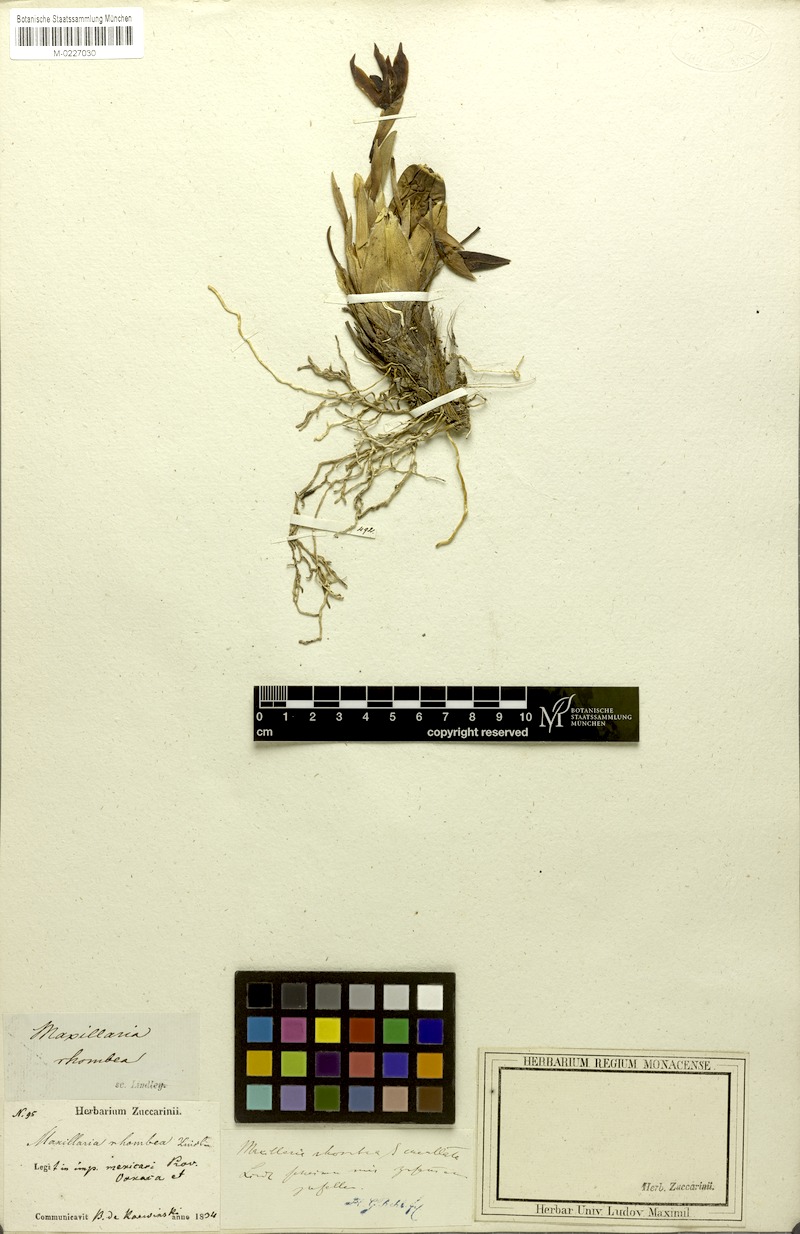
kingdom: Plantae
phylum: Tracheophyta
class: Liliopsida
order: Asparagales
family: Orchidaceae
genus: Maxillaria
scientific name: Maxillaria rhombea
